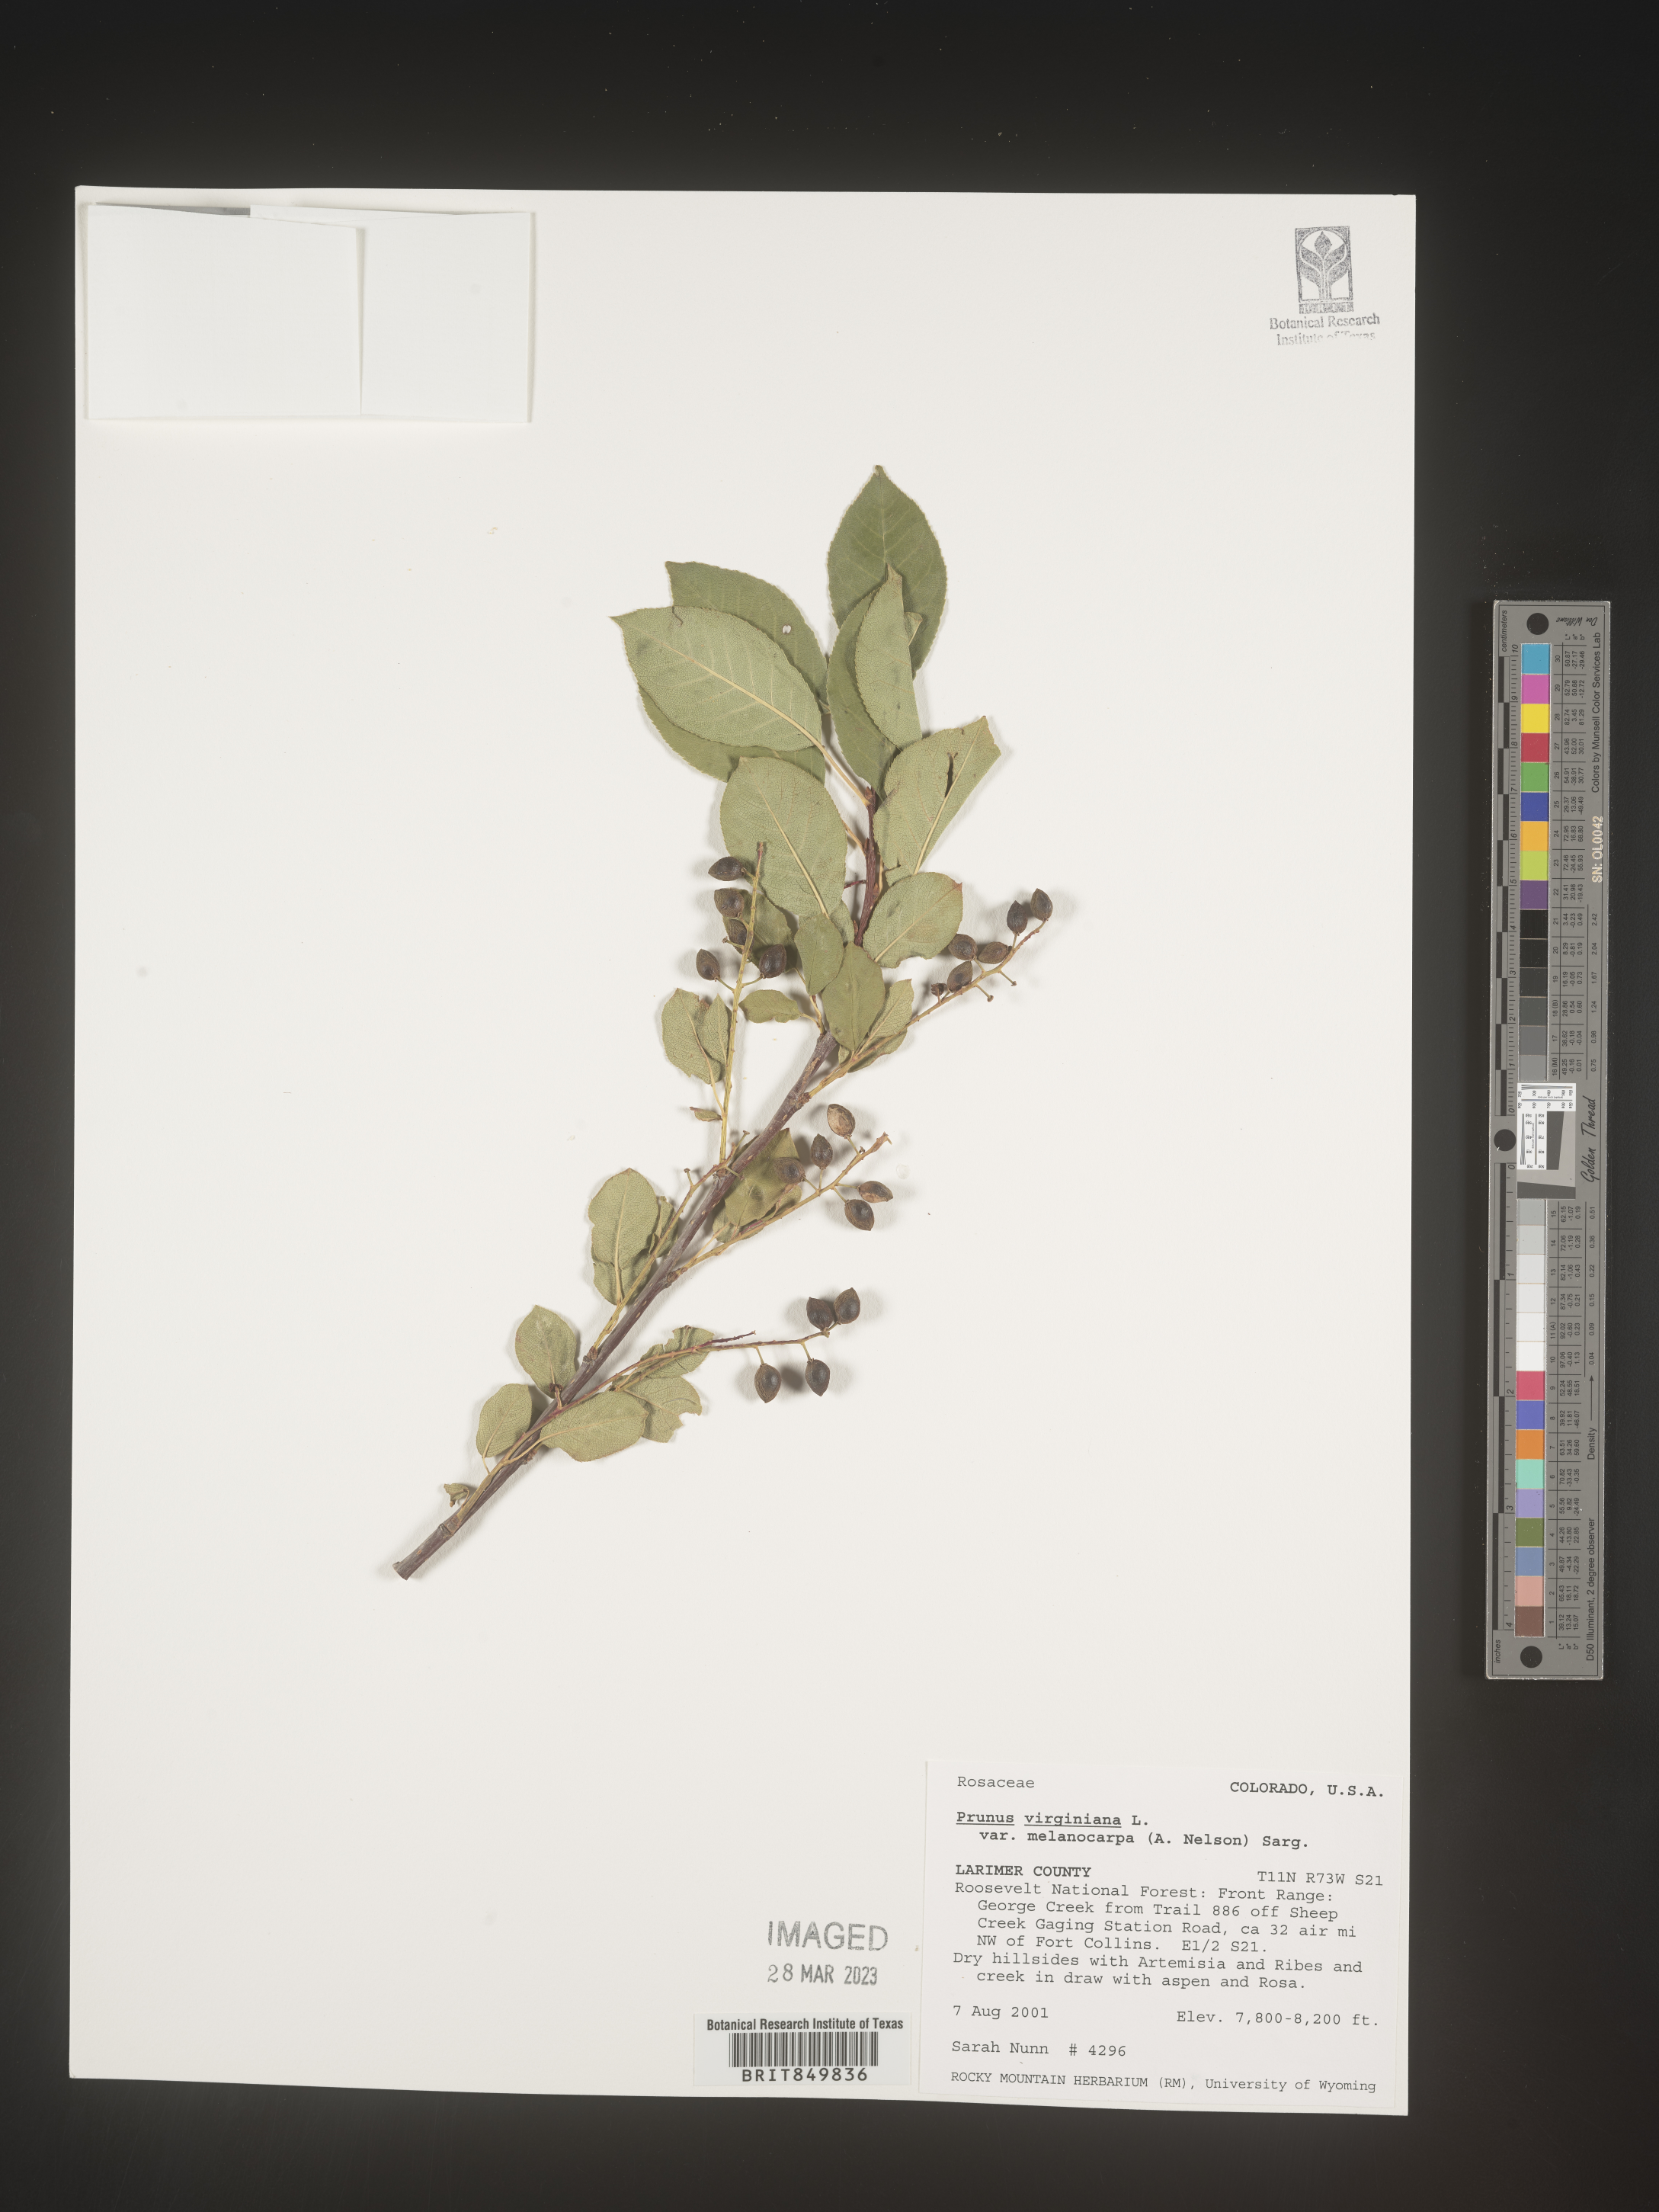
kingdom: Plantae
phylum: Tracheophyta
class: Magnoliopsida
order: Rosales
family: Rosaceae
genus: Prunus
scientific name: Prunus virginiana
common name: Chokecherry
